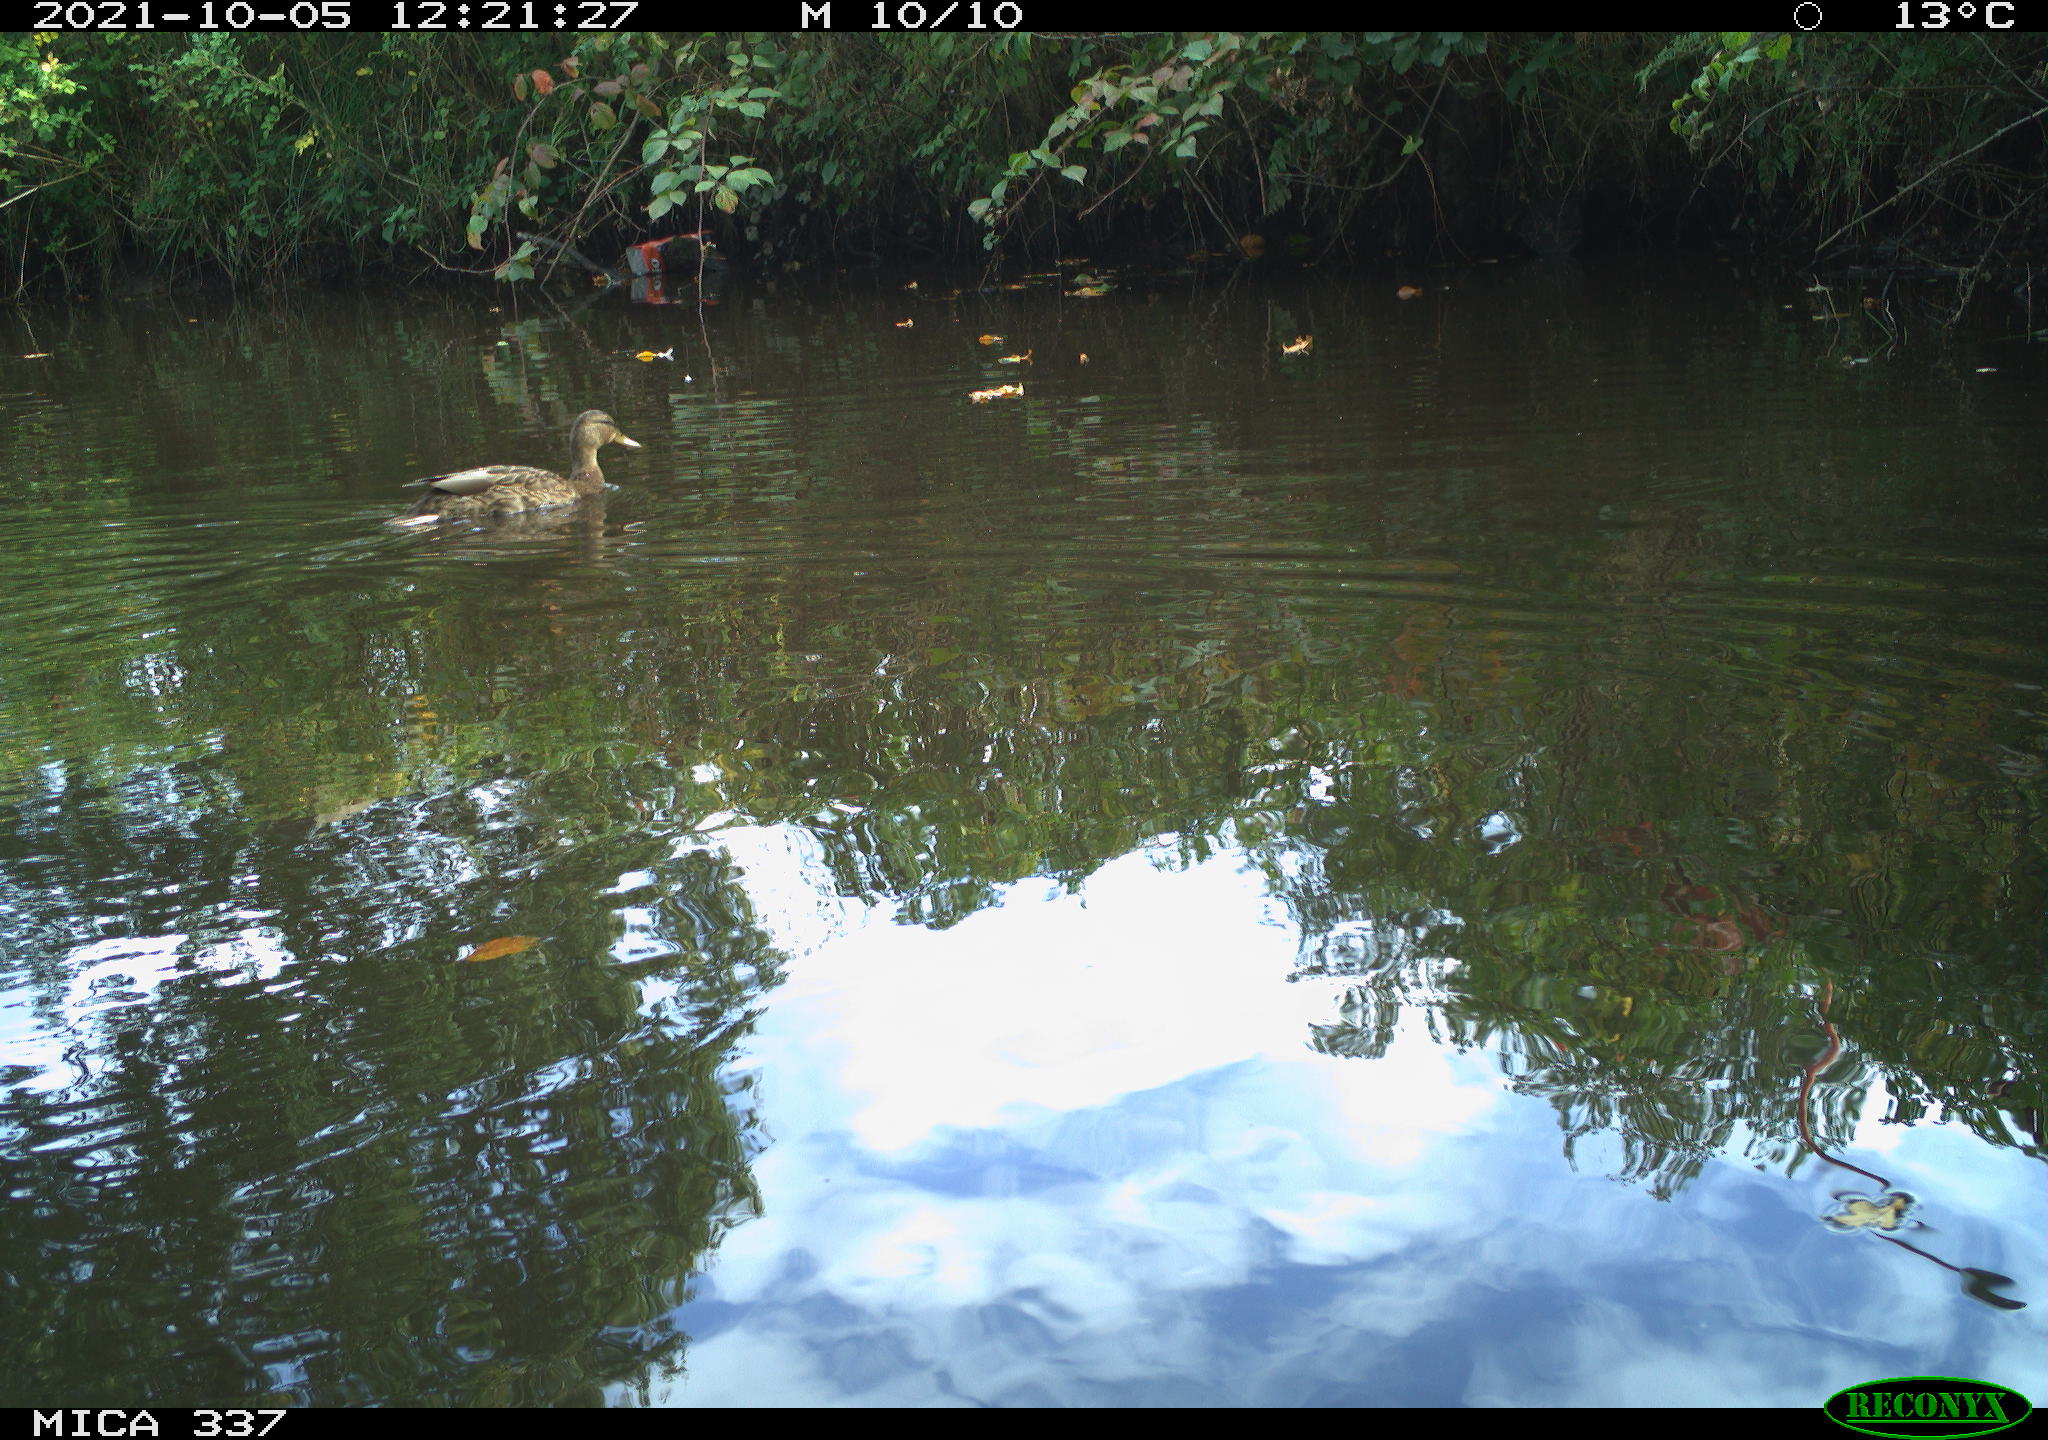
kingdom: Animalia
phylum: Chordata
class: Aves
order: Anseriformes
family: Anatidae
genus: Anas
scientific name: Anas platyrhynchos
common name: Mallard
